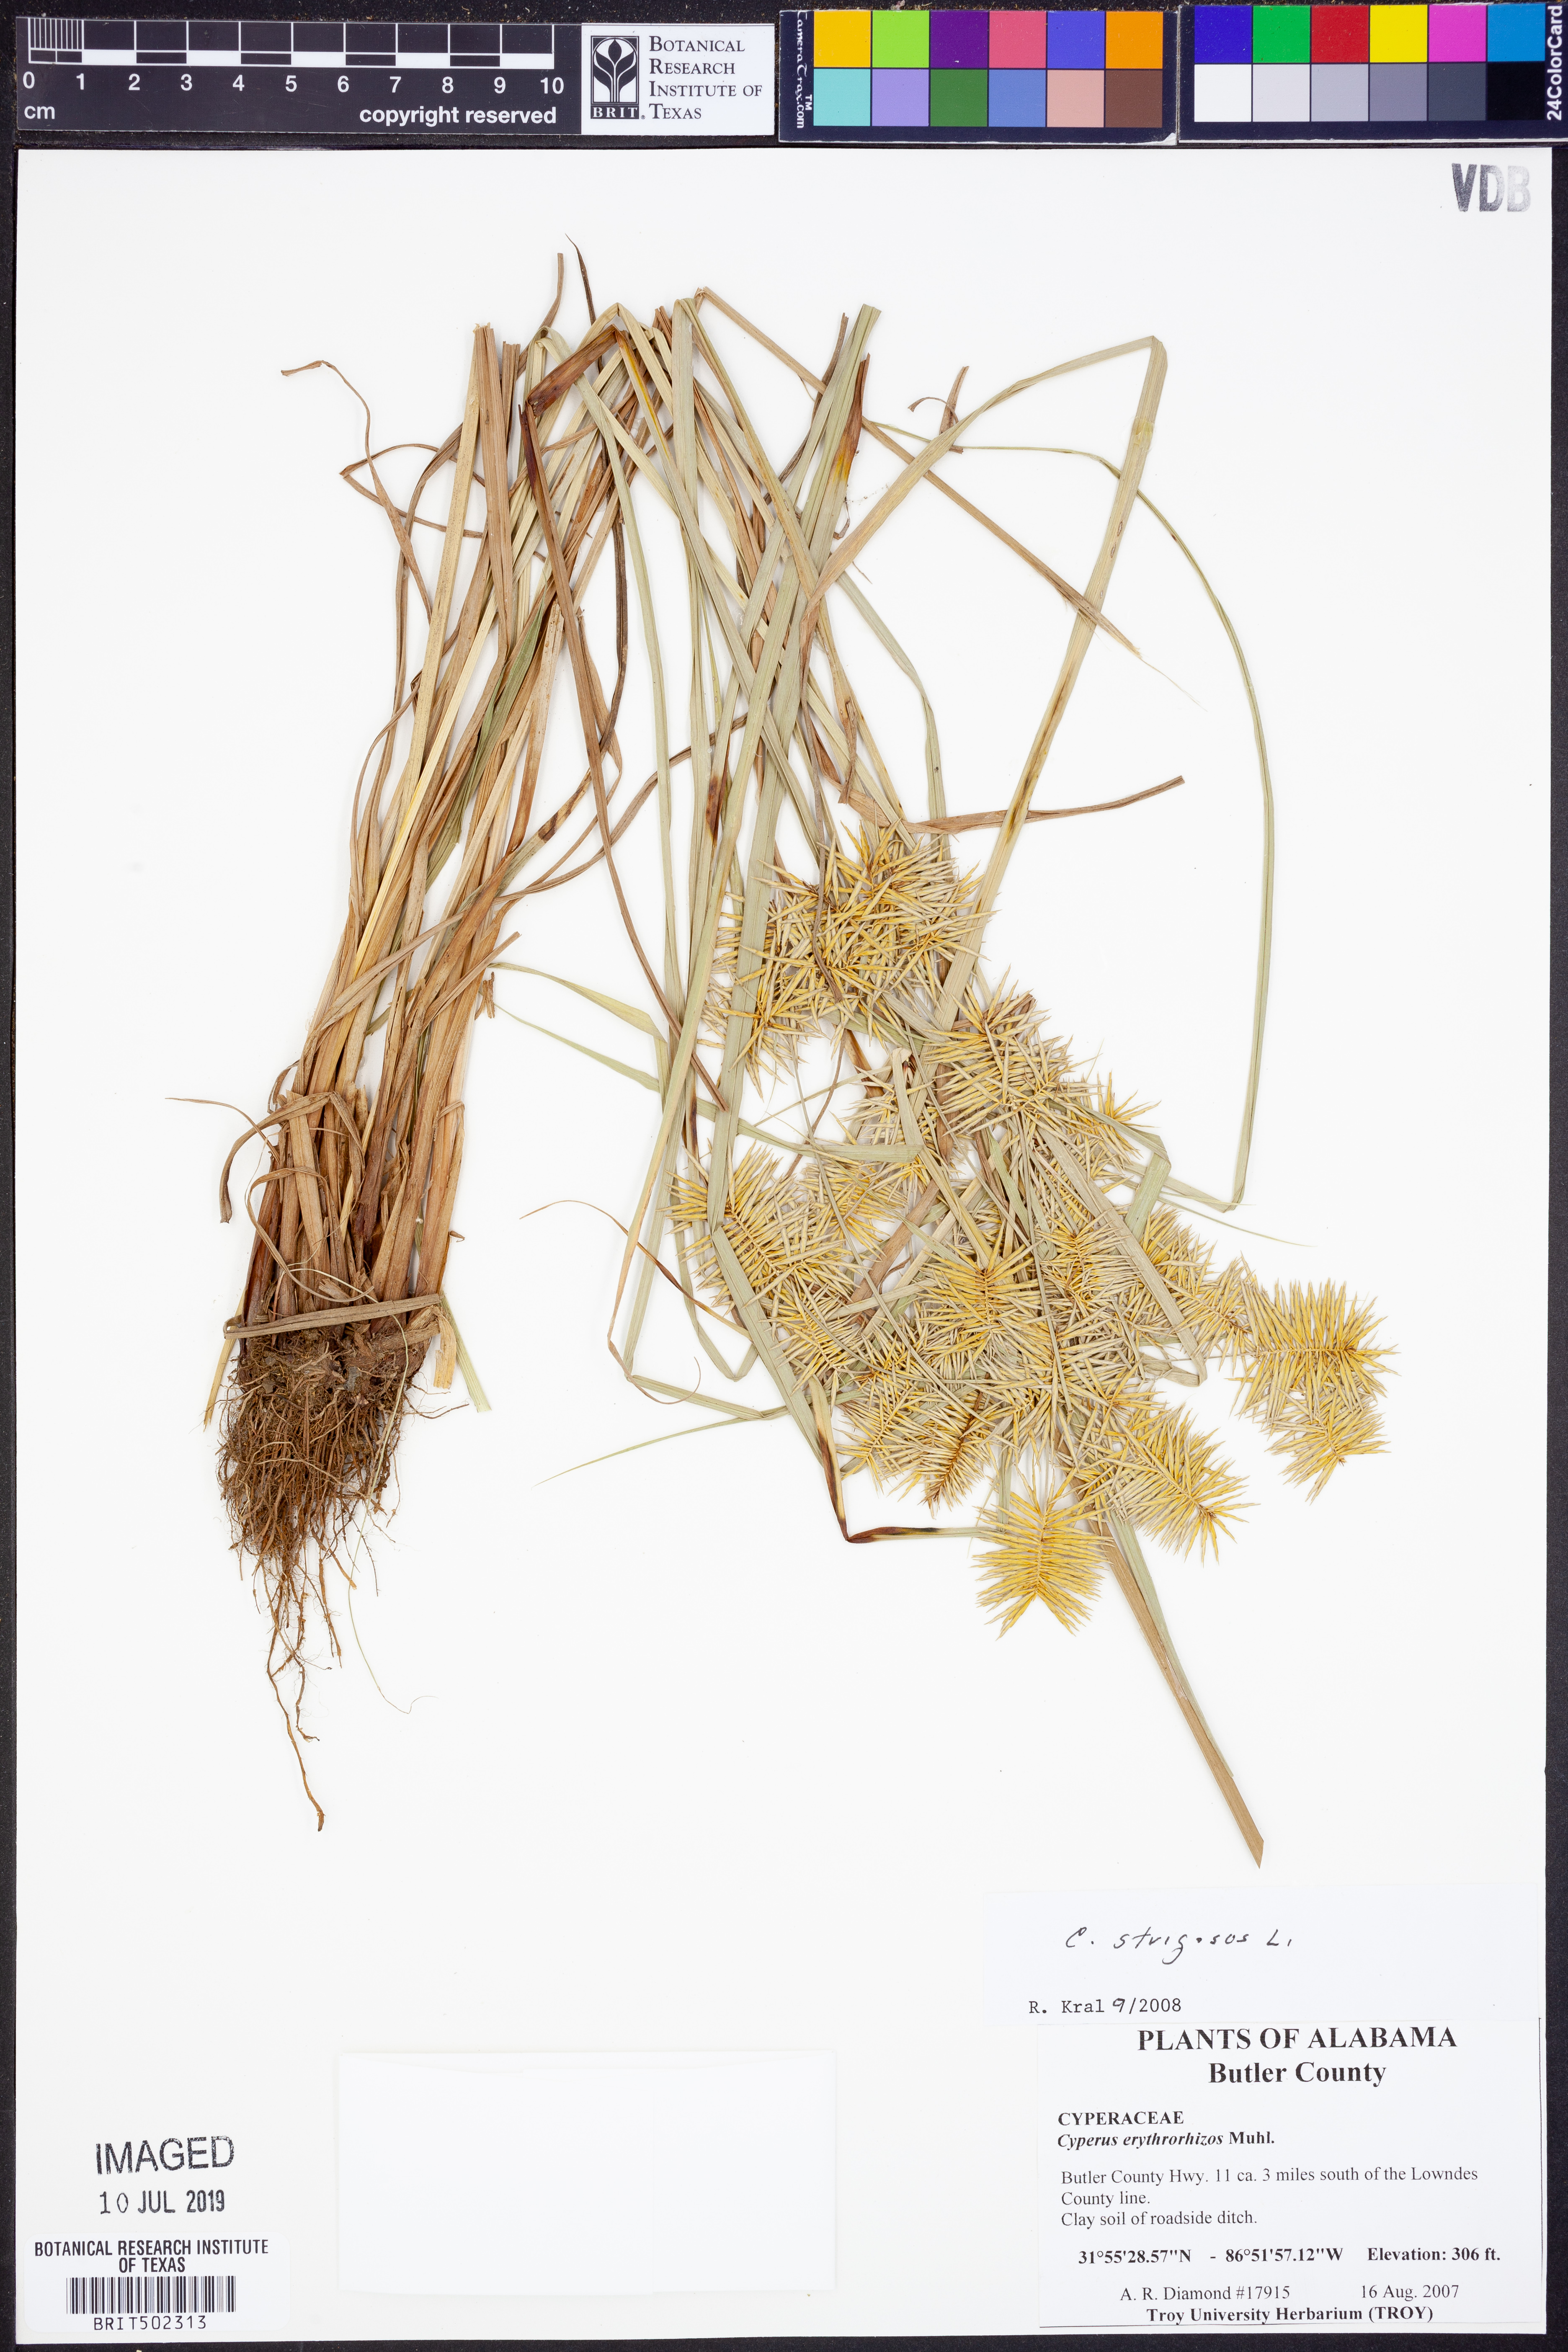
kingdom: Plantae
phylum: Tracheophyta
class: Liliopsida
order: Poales
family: Cyperaceae
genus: Cyperus
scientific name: Cyperus strigosus
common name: False nutsedge
